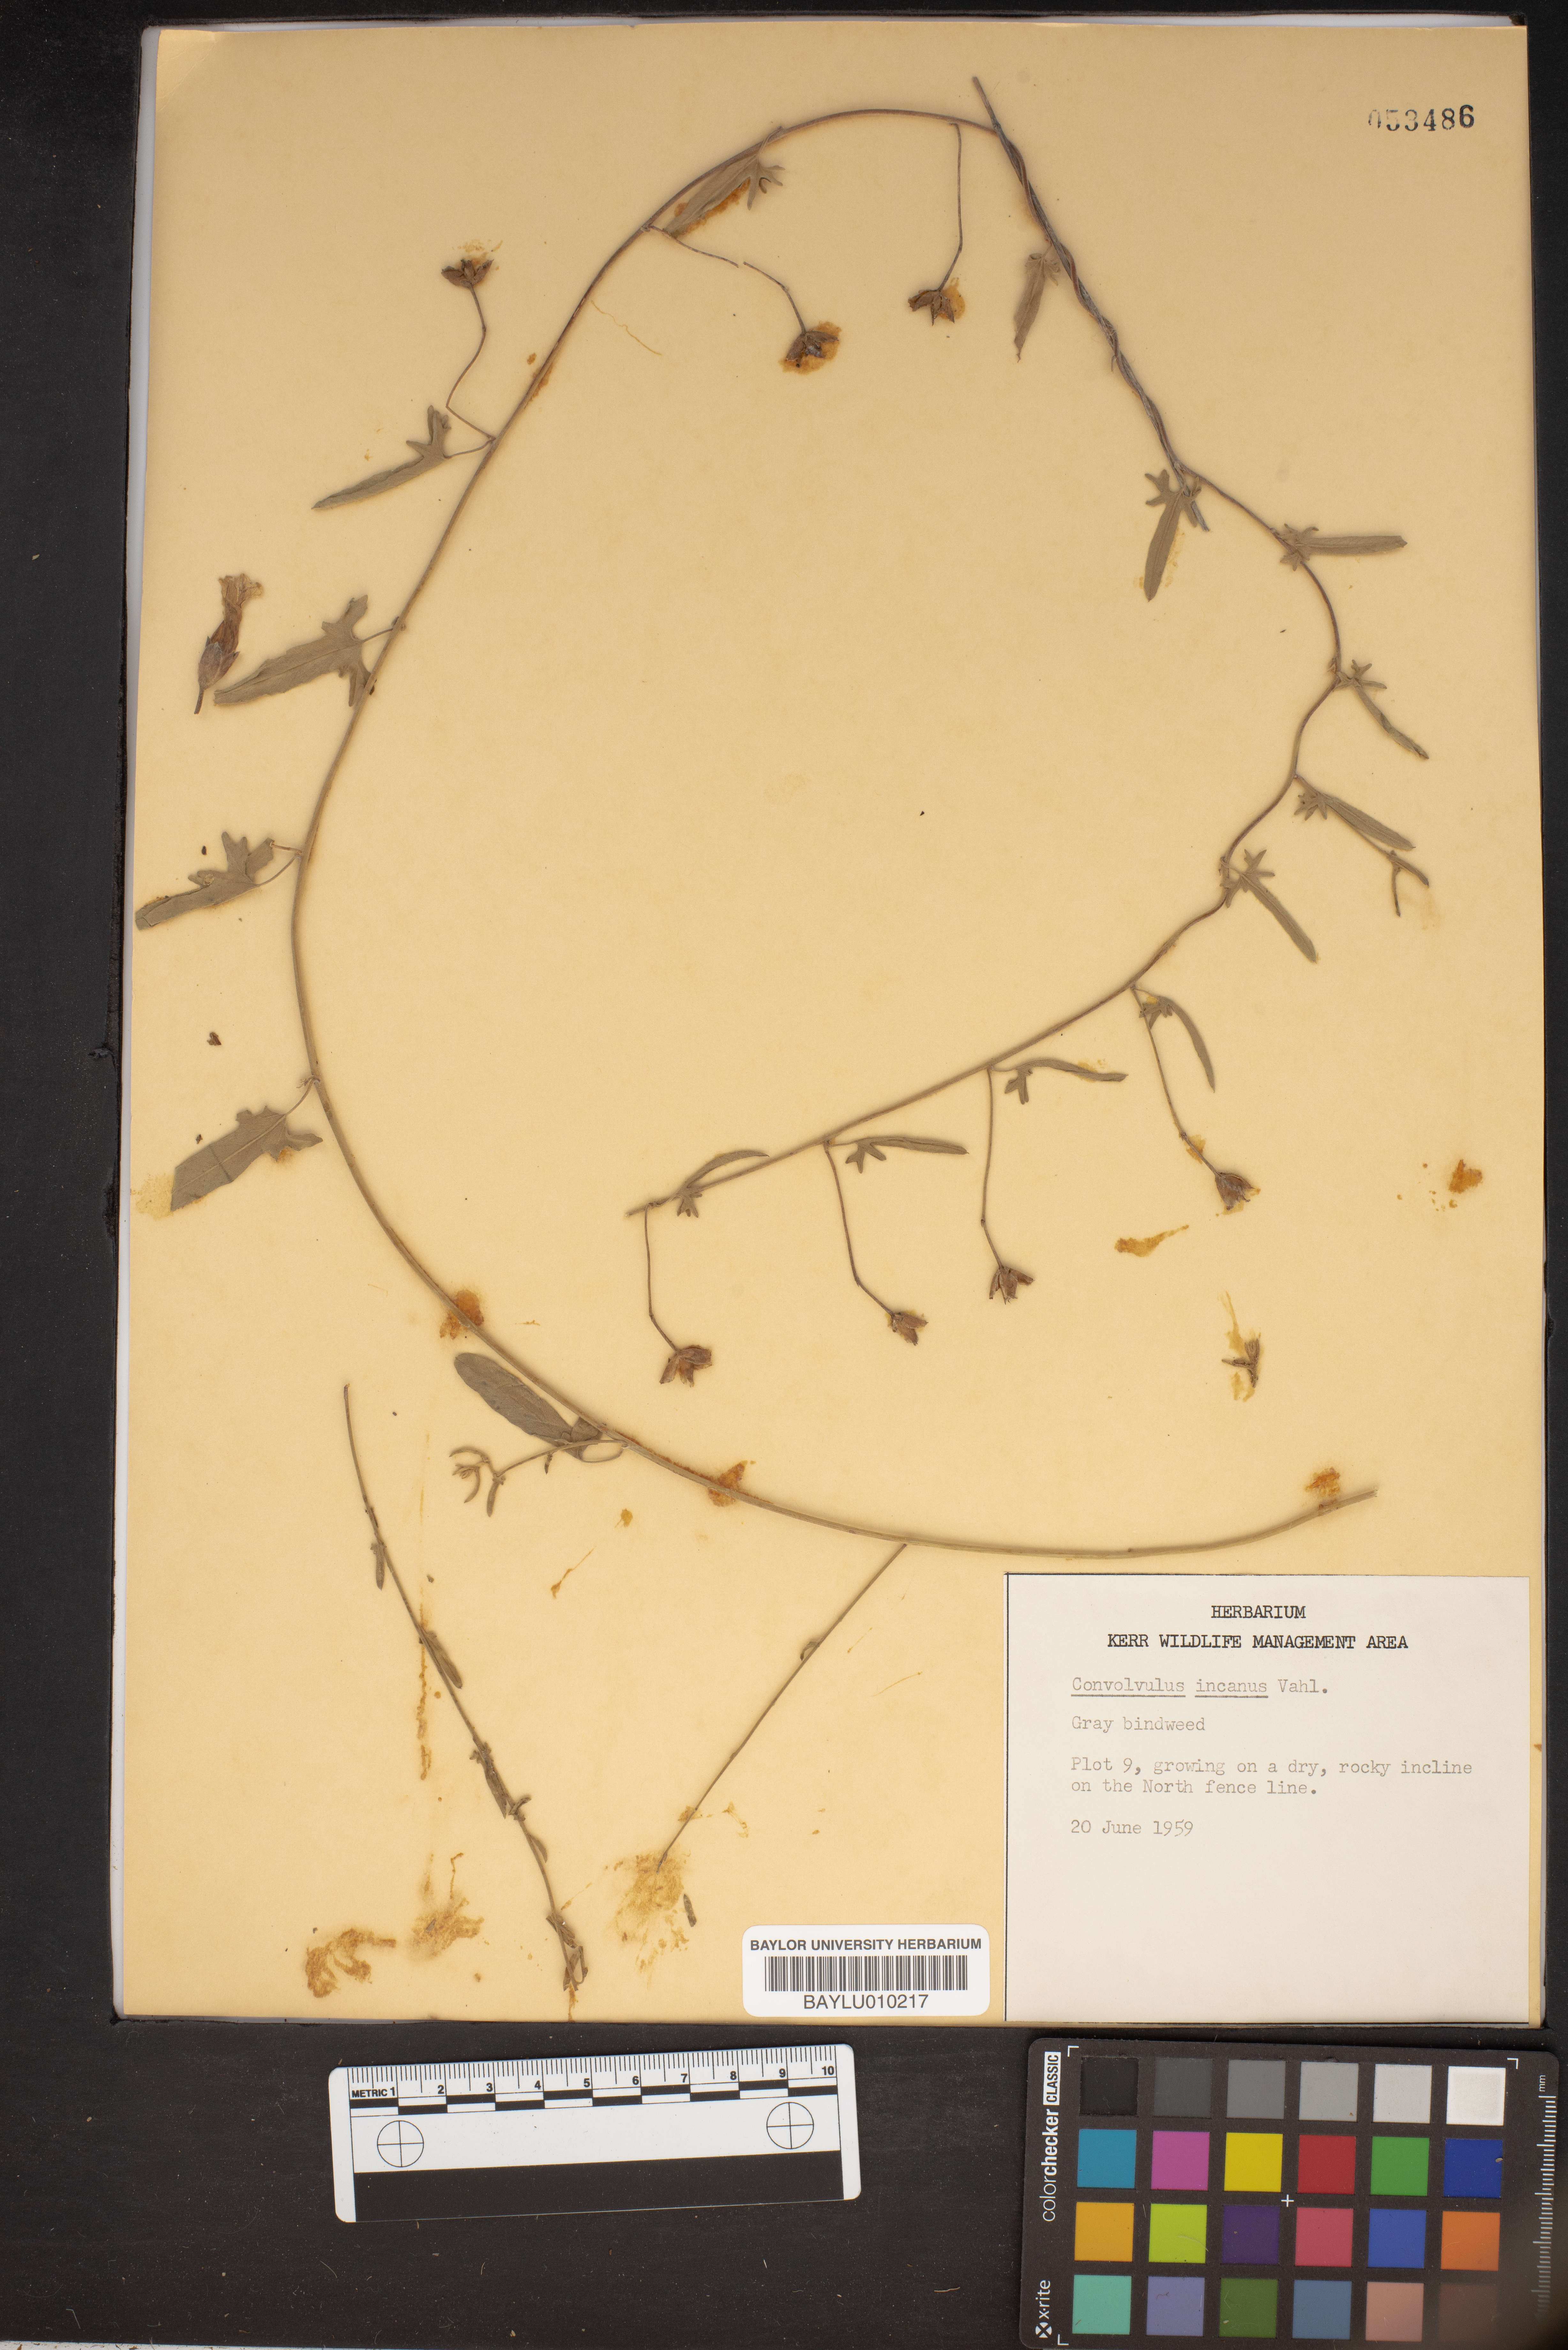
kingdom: Plantae
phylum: Tracheophyta
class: Magnoliopsida
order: Solanales
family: Convolvulaceae
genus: Convolvulus
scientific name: Convolvulus hermanniae
